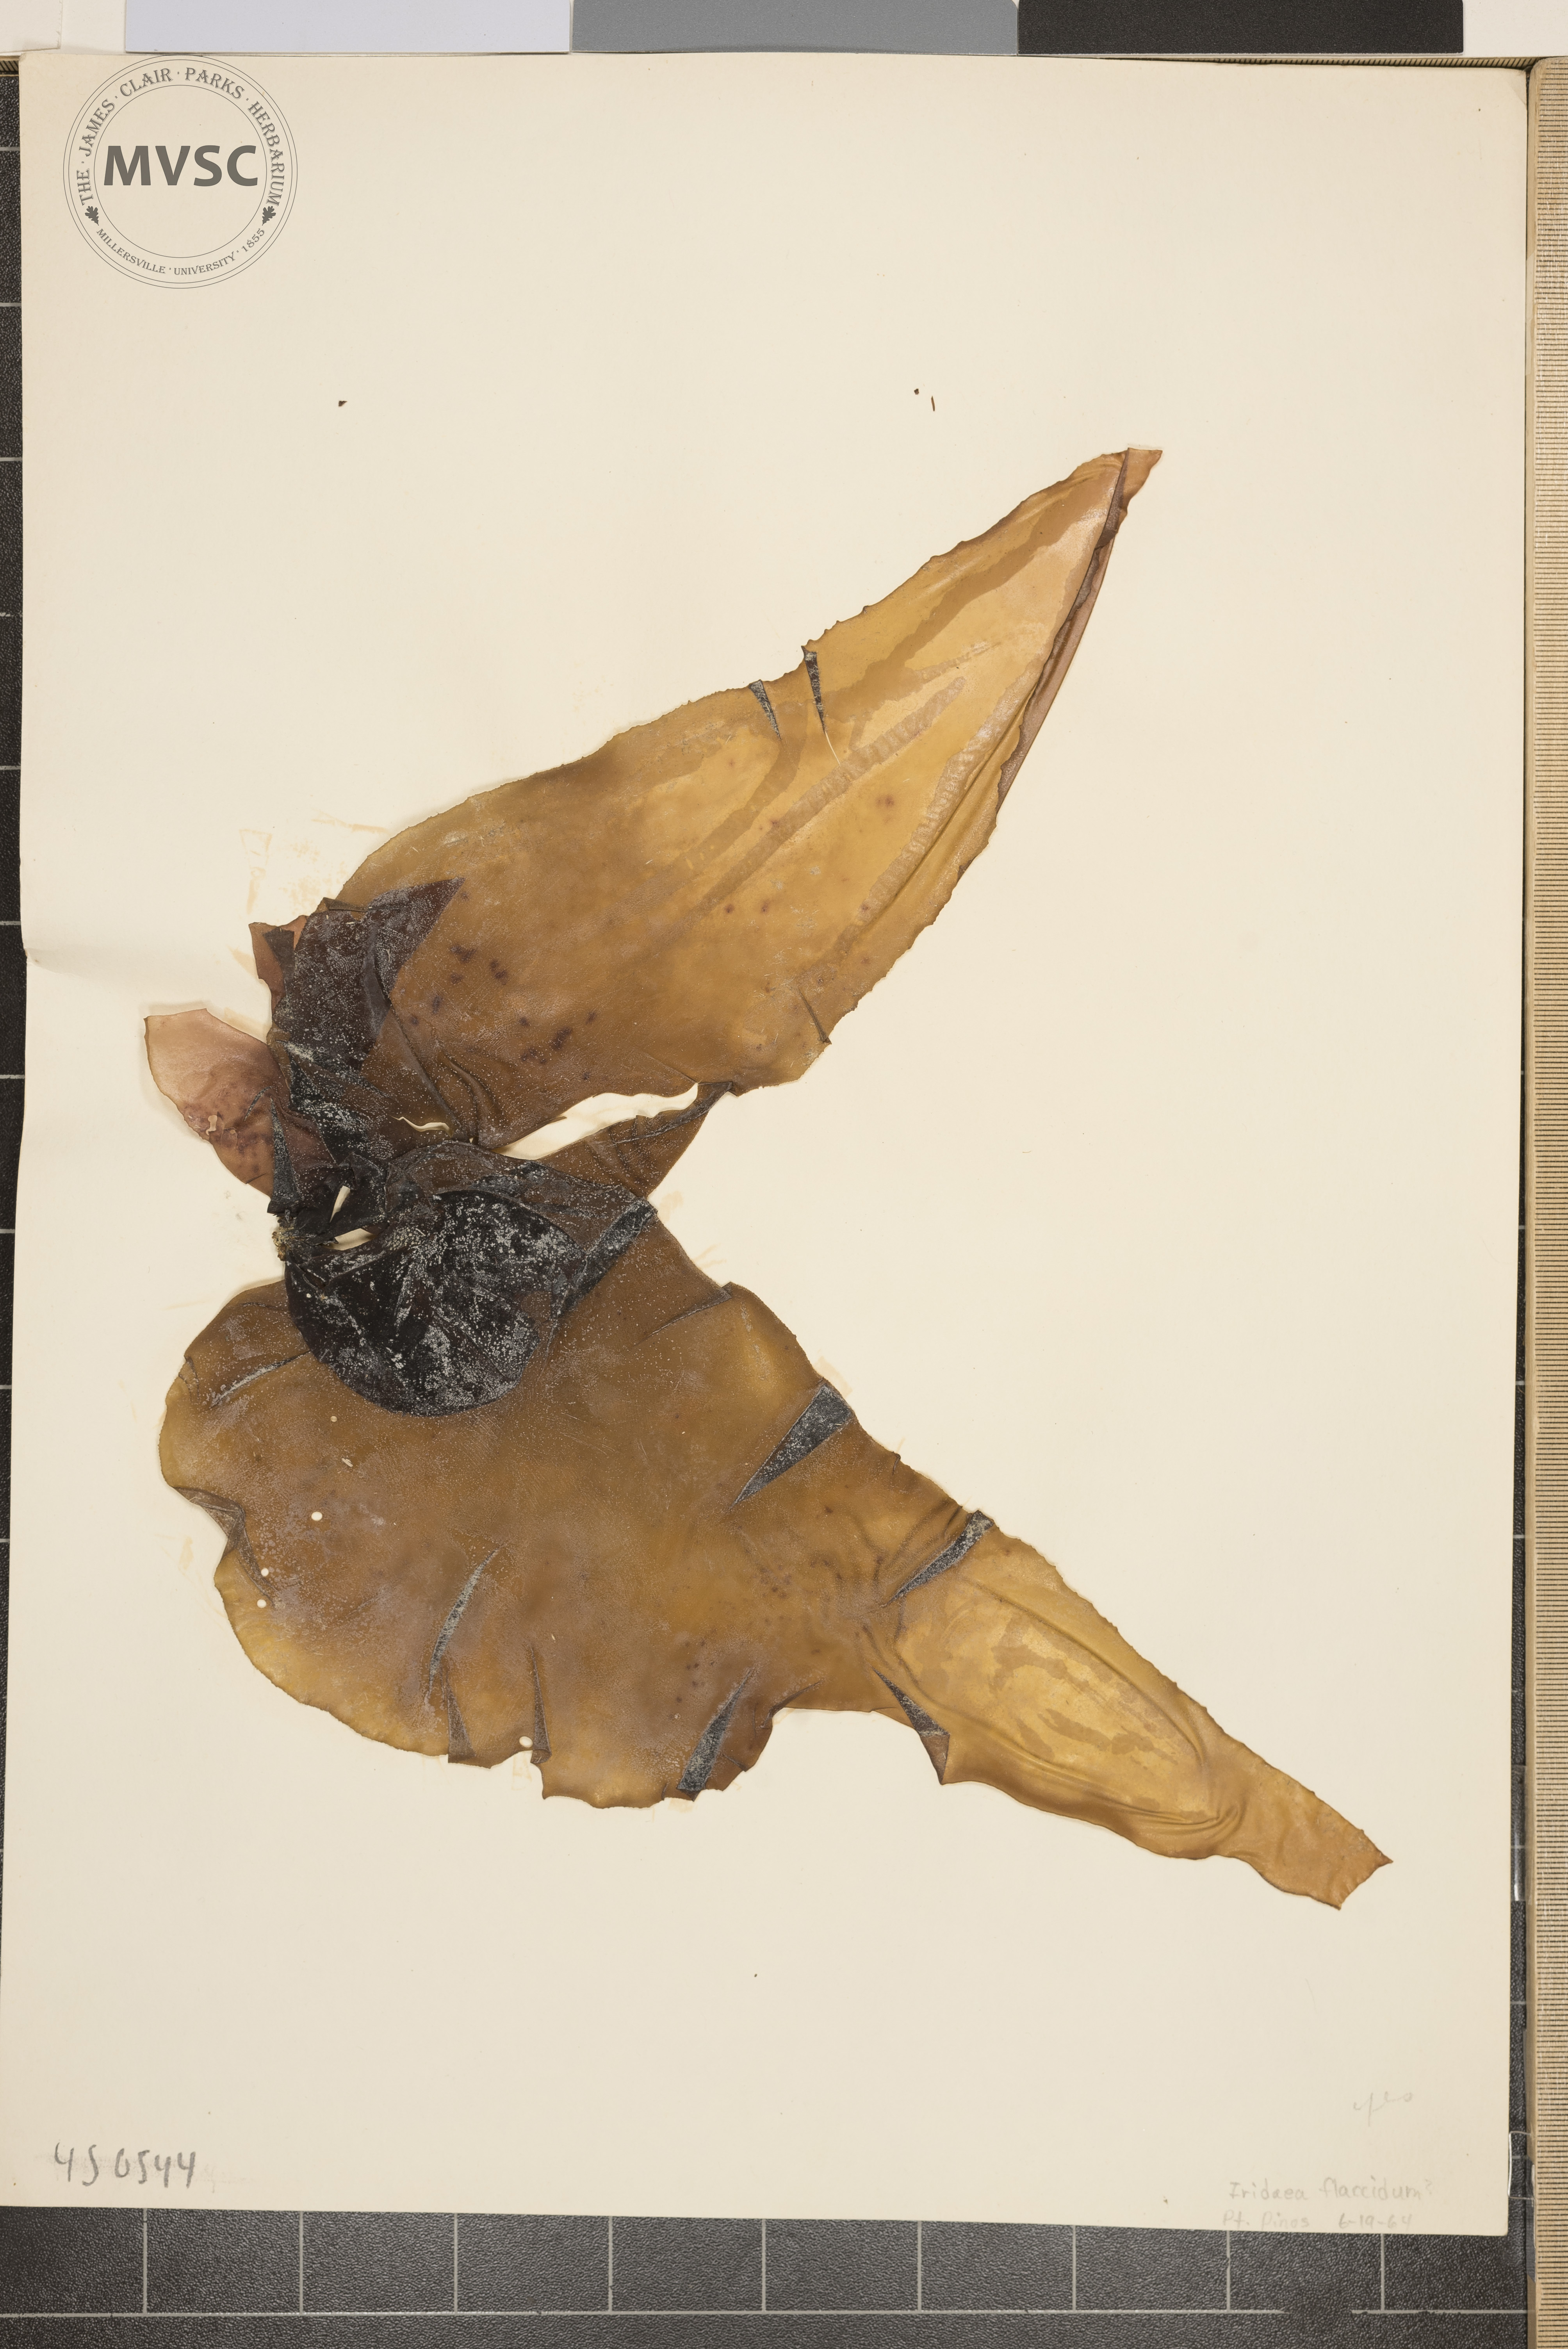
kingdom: Plantae
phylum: Rhodophyta
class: Florideophyceae
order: Gigartinales
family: Gigartinaceae
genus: Iridaea
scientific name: Iridaea flaccida
